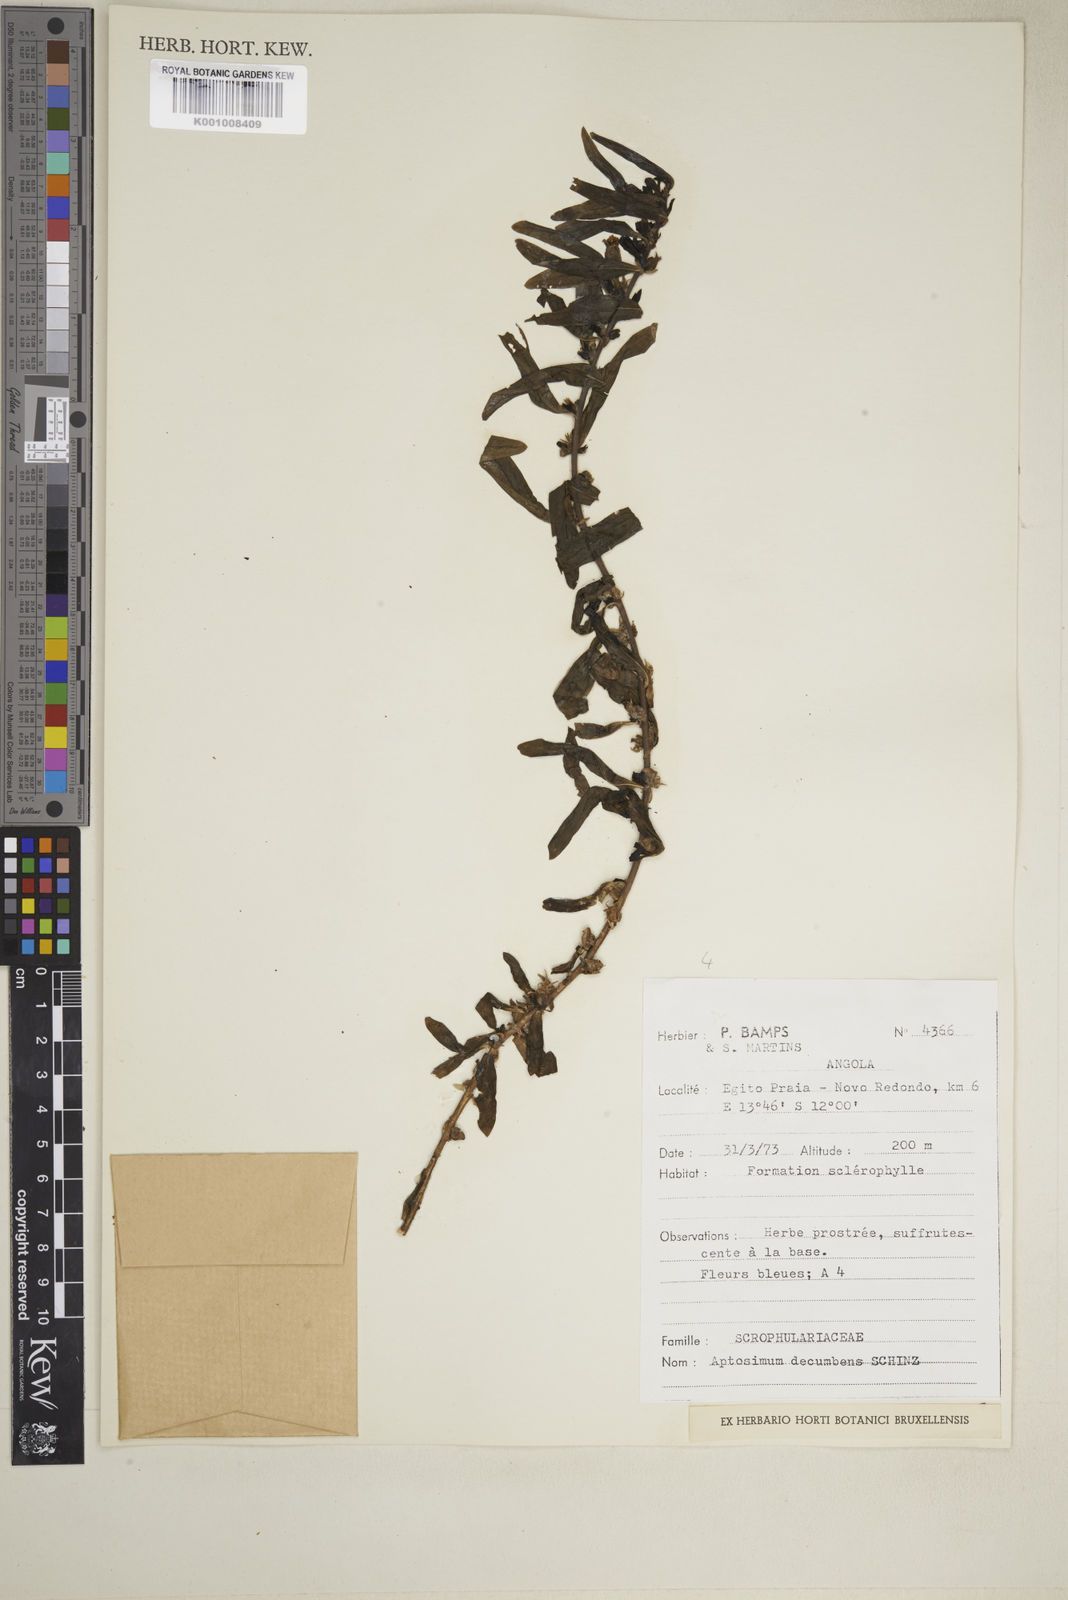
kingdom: Plantae
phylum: Tracheophyta
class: Magnoliopsida
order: Lamiales
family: Scrophulariaceae
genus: Aptosimum
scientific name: Aptosimum decumbens
